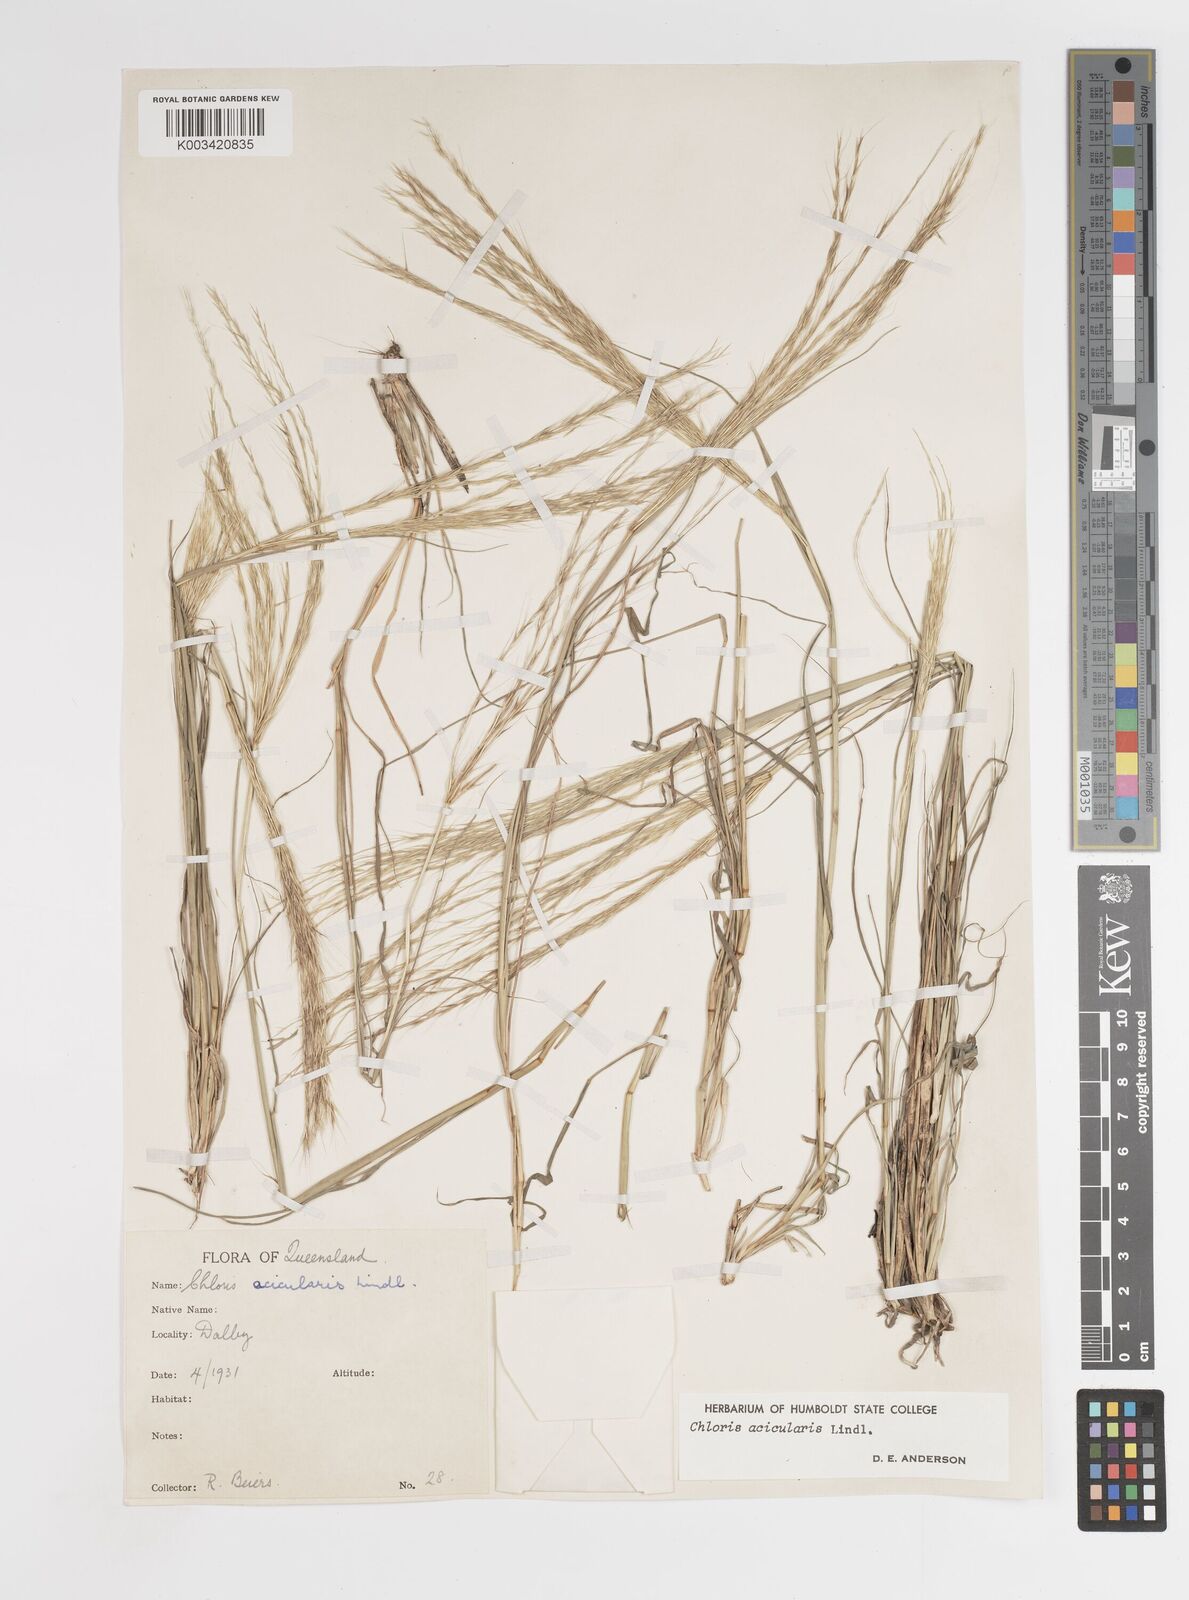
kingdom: Plantae
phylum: Tracheophyta
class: Liliopsida
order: Poales
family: Poaceae
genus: Enteropogon
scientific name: Enteropogon acicularis
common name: Curly windmill grass
